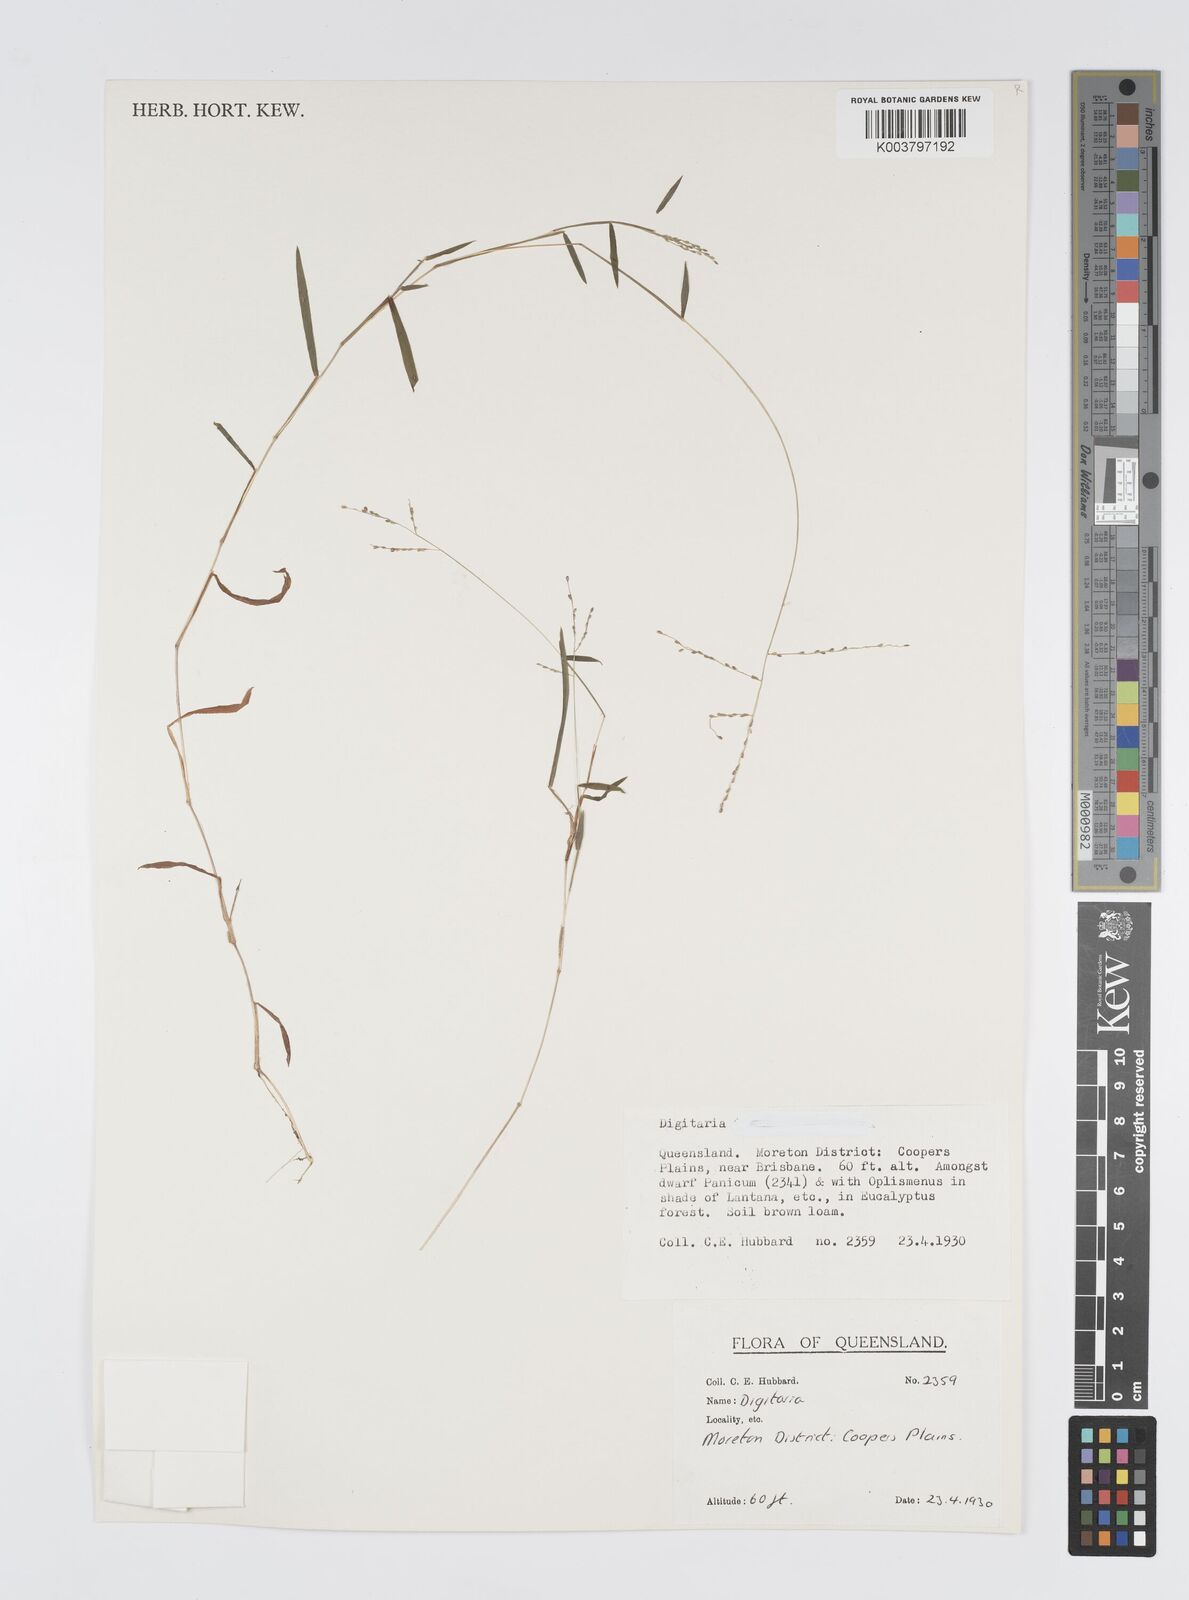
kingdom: Plantae
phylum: Tracheophyta
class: Liliopsida
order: Poales
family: Poaceae
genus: Digitaria
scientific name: Digitaria spec
